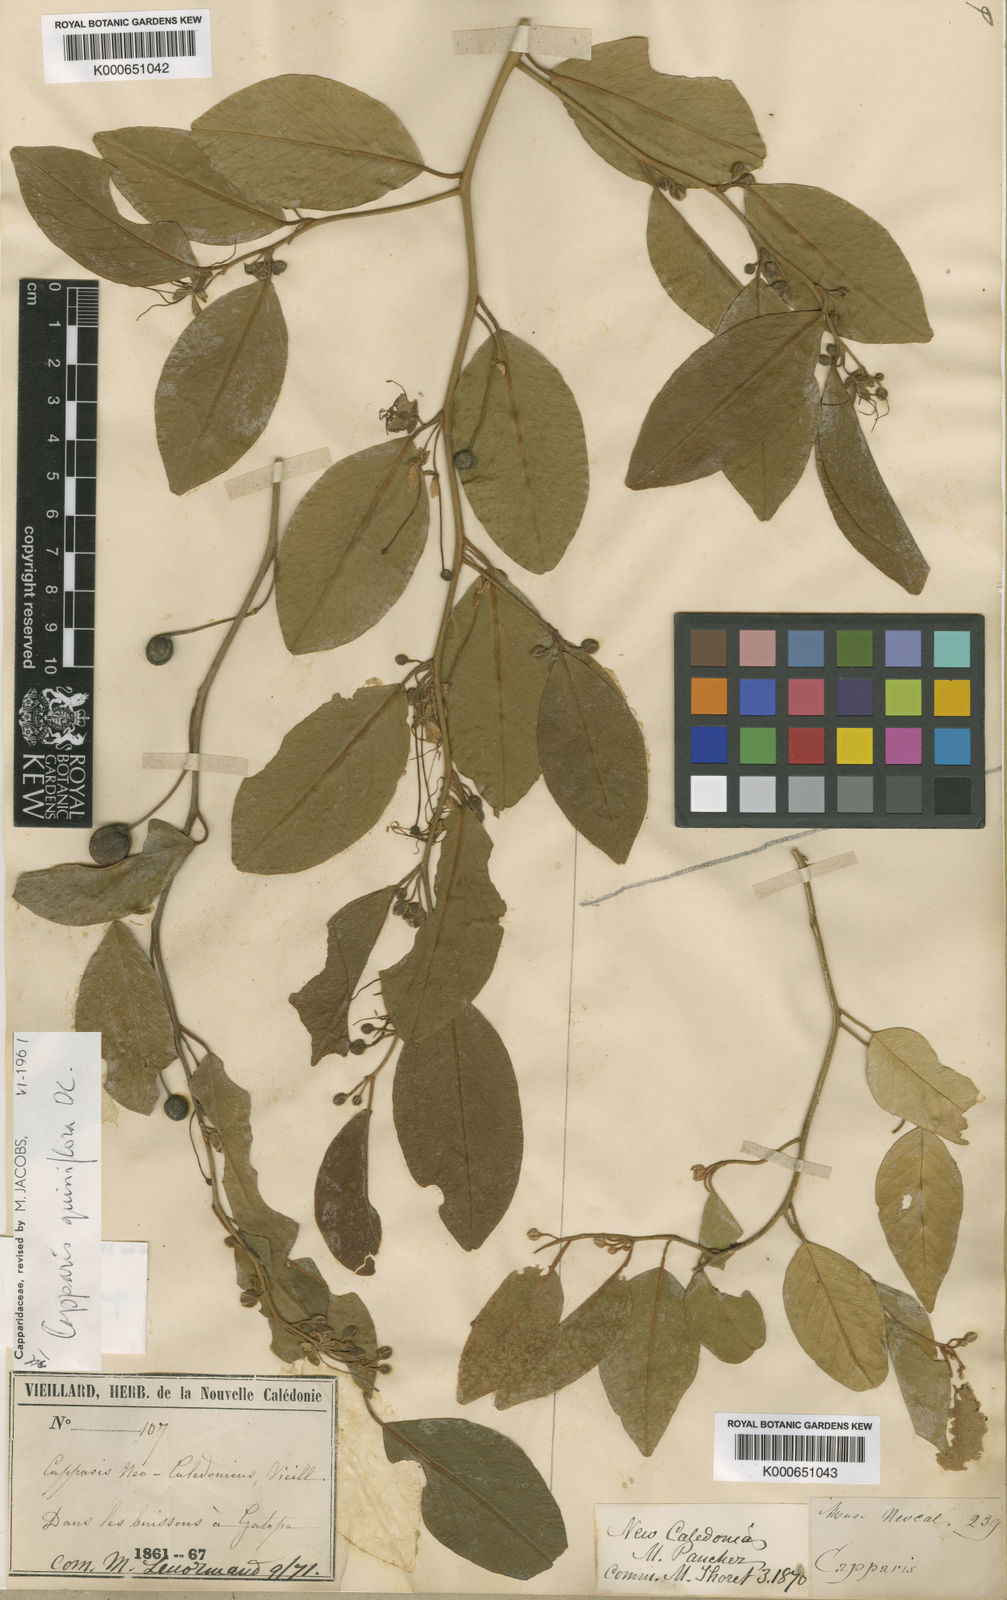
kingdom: Plantae
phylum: Tracheophyta
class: Magnoliopsida
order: Brassicales
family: Capparaceae
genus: Capparis
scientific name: Capparis
